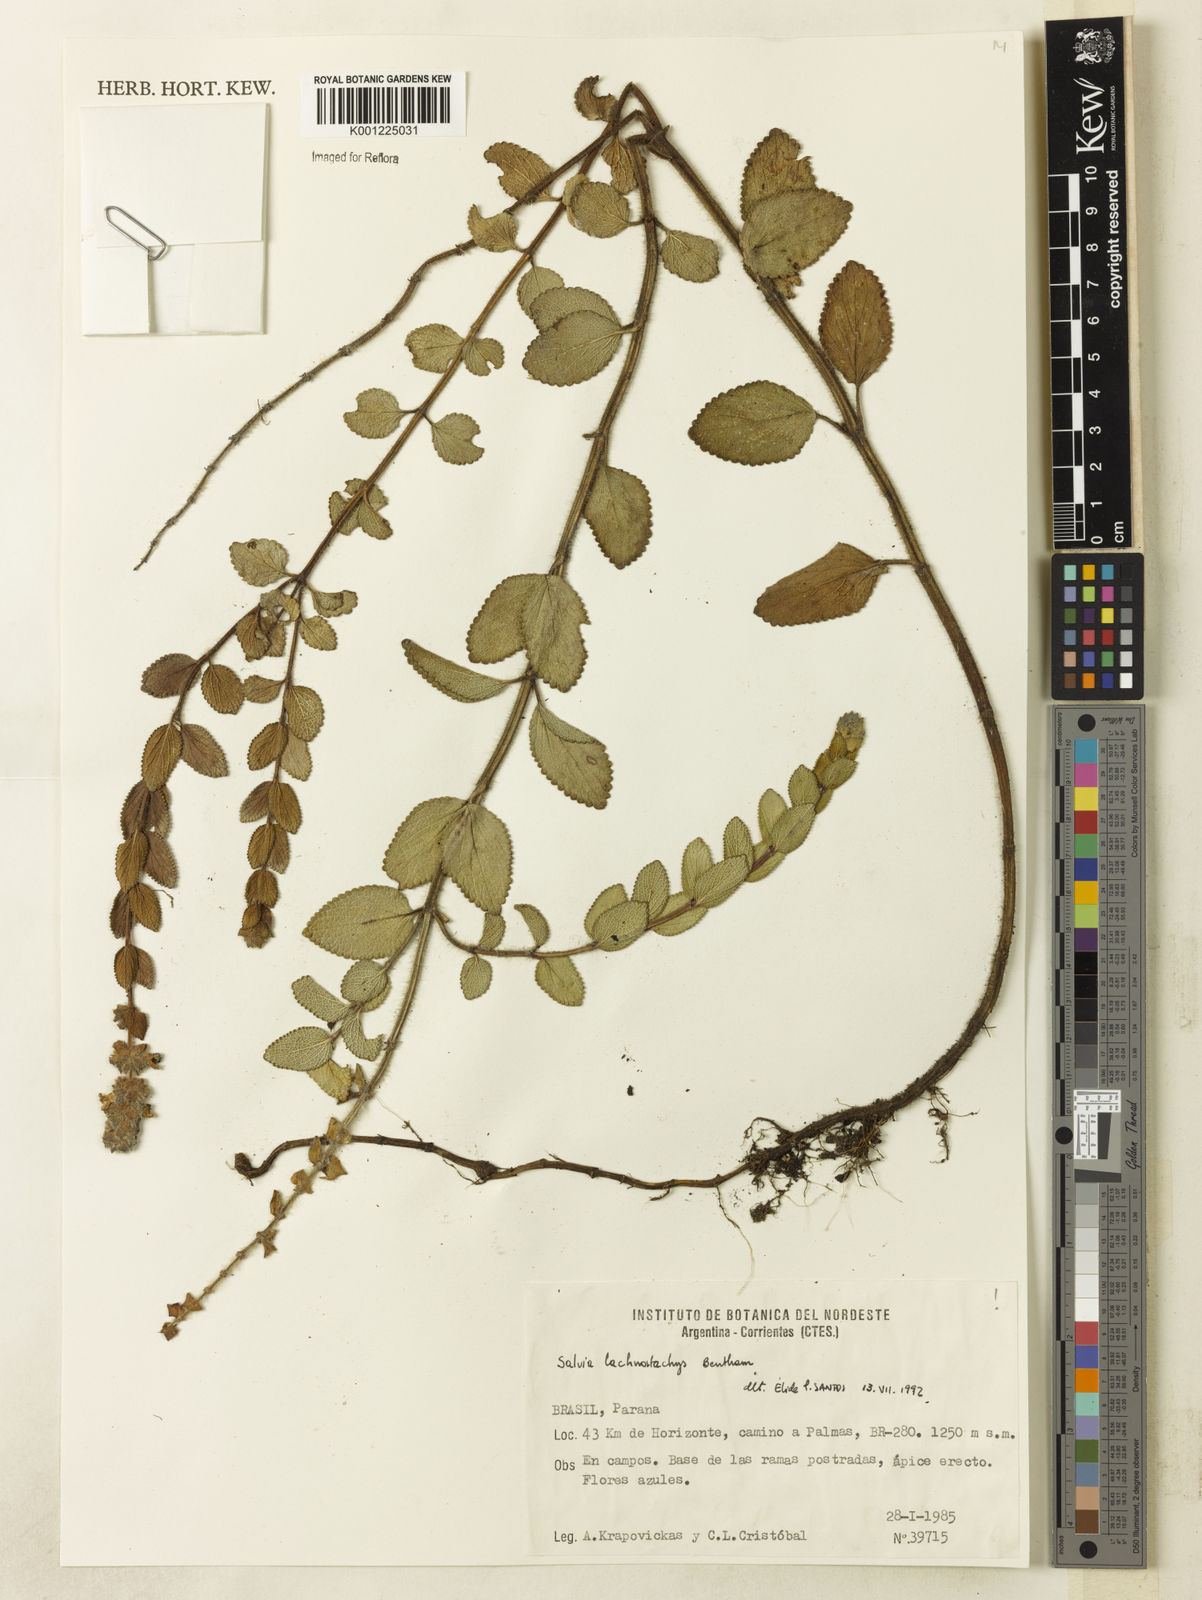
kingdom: Plantae
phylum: Tracheophyta
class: Magnoliopsida
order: Lamiales
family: Lamiaceae
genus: Salvia
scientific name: Salvia lachnostachys
